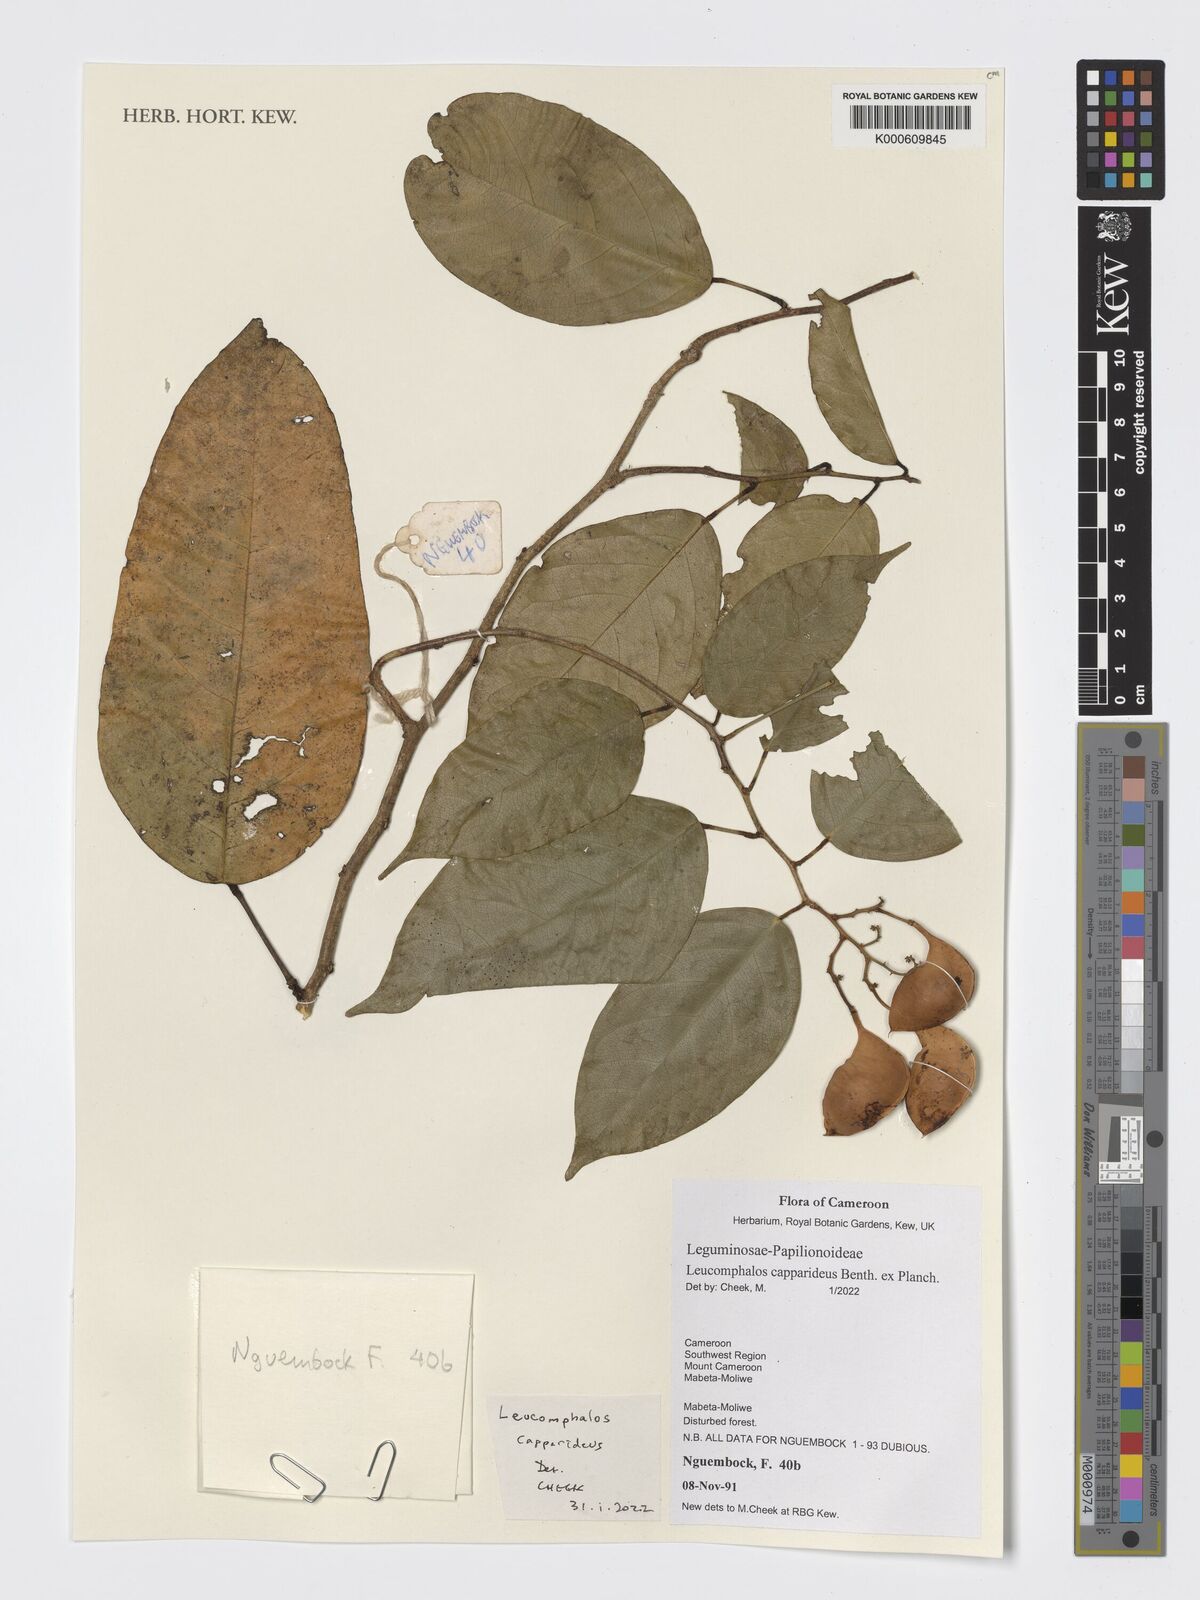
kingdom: Plantae
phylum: Tracheophyta
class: Magnoliopsida
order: Fabales
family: Fabaceae
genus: Leucomphalos
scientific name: Leucomphalos capparideus
